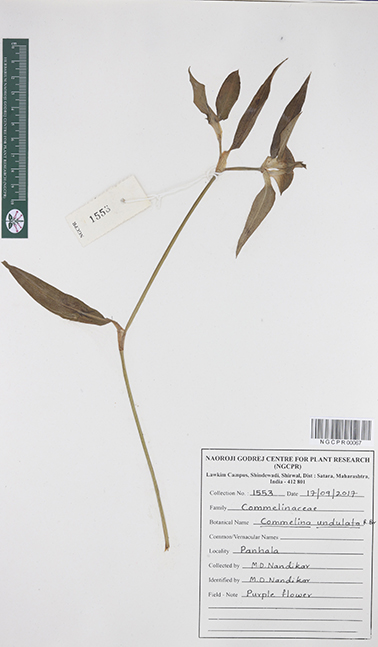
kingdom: Plantae
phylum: Tracheophyta
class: Liliopsida
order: Commelinales
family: Commelinaceae
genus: Commelina
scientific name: Commelina undulata
